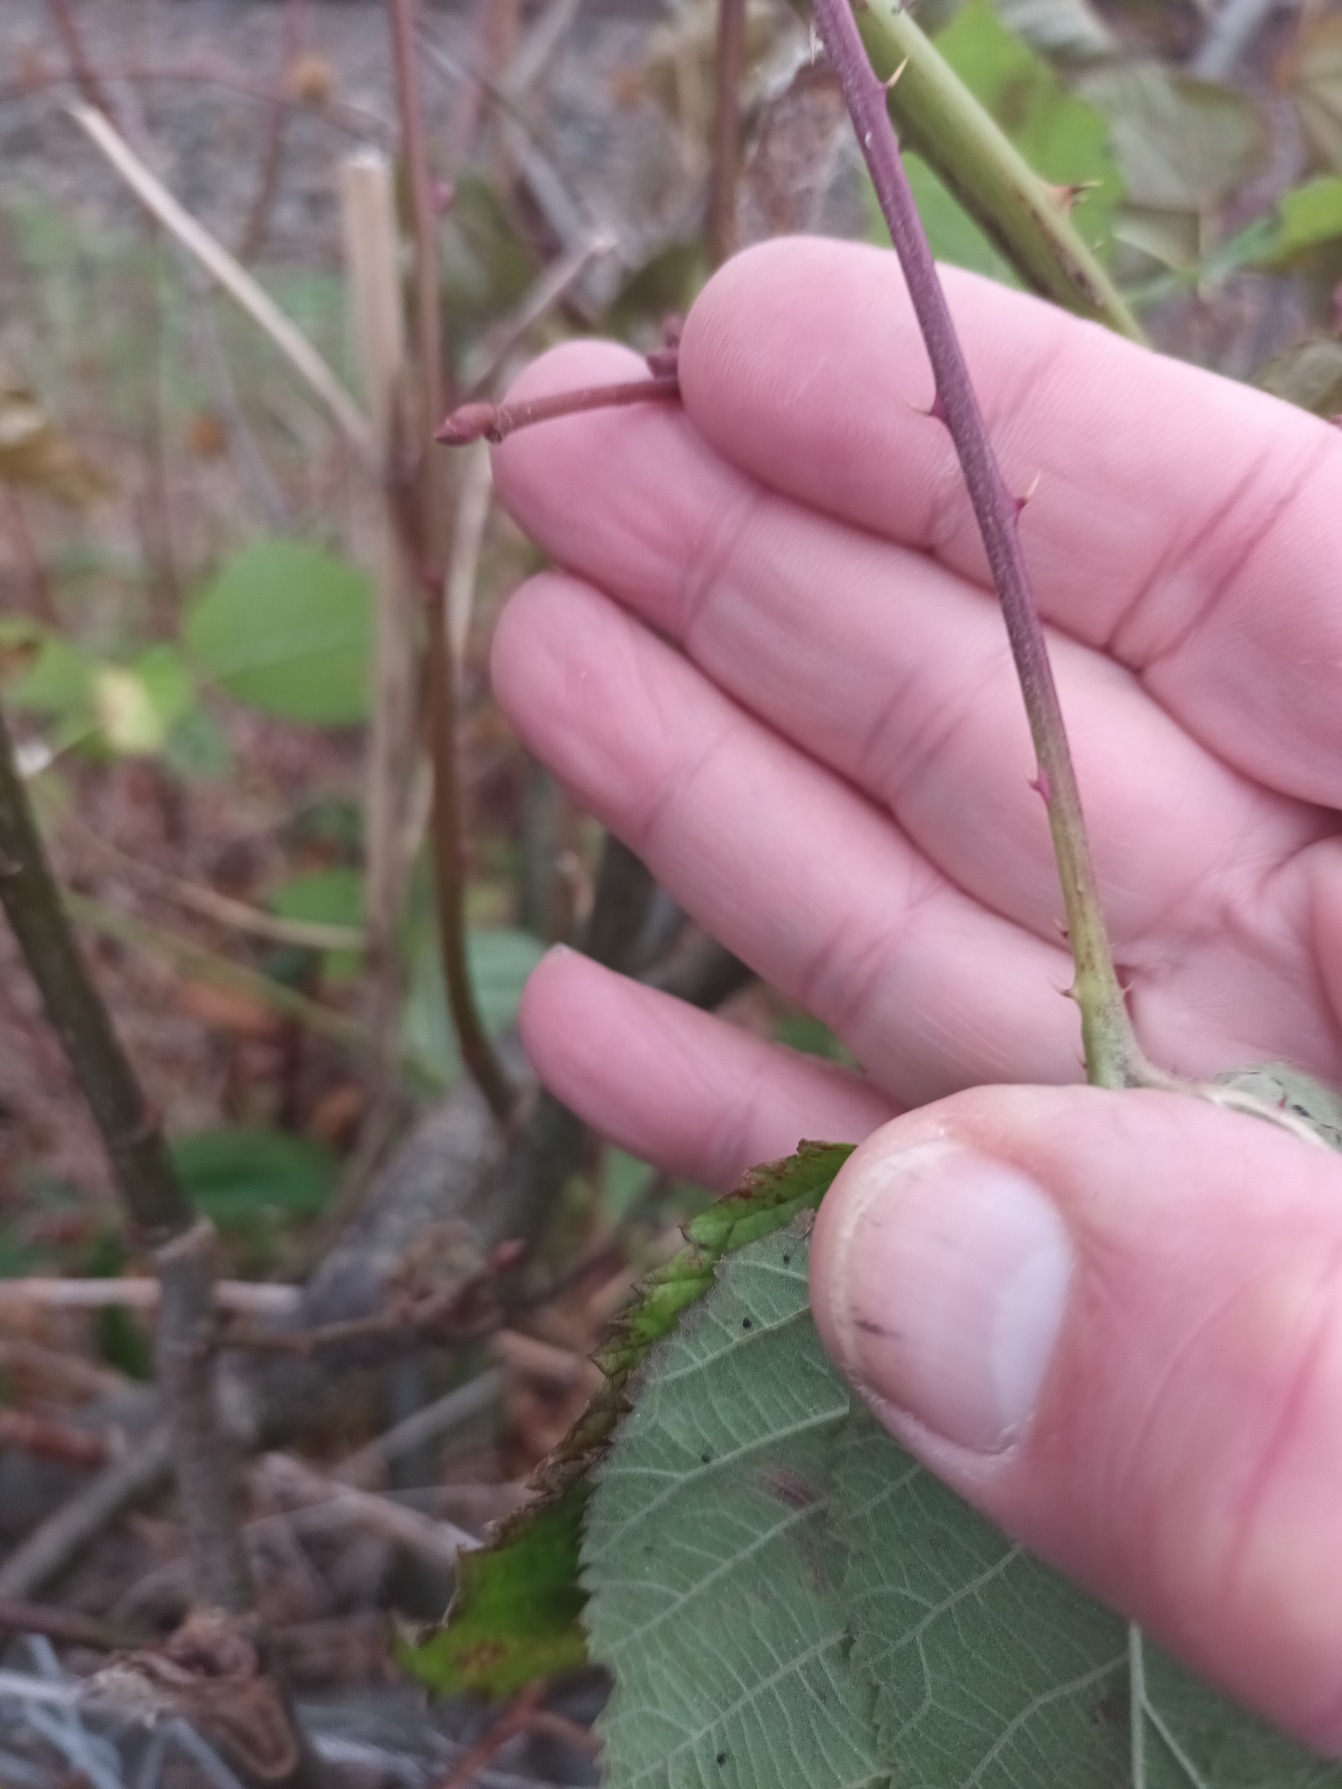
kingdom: Plantae
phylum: Tracheophyta
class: Magnoliopsida
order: Rosales
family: Rosaceae
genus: Rubus
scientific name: Rubus
